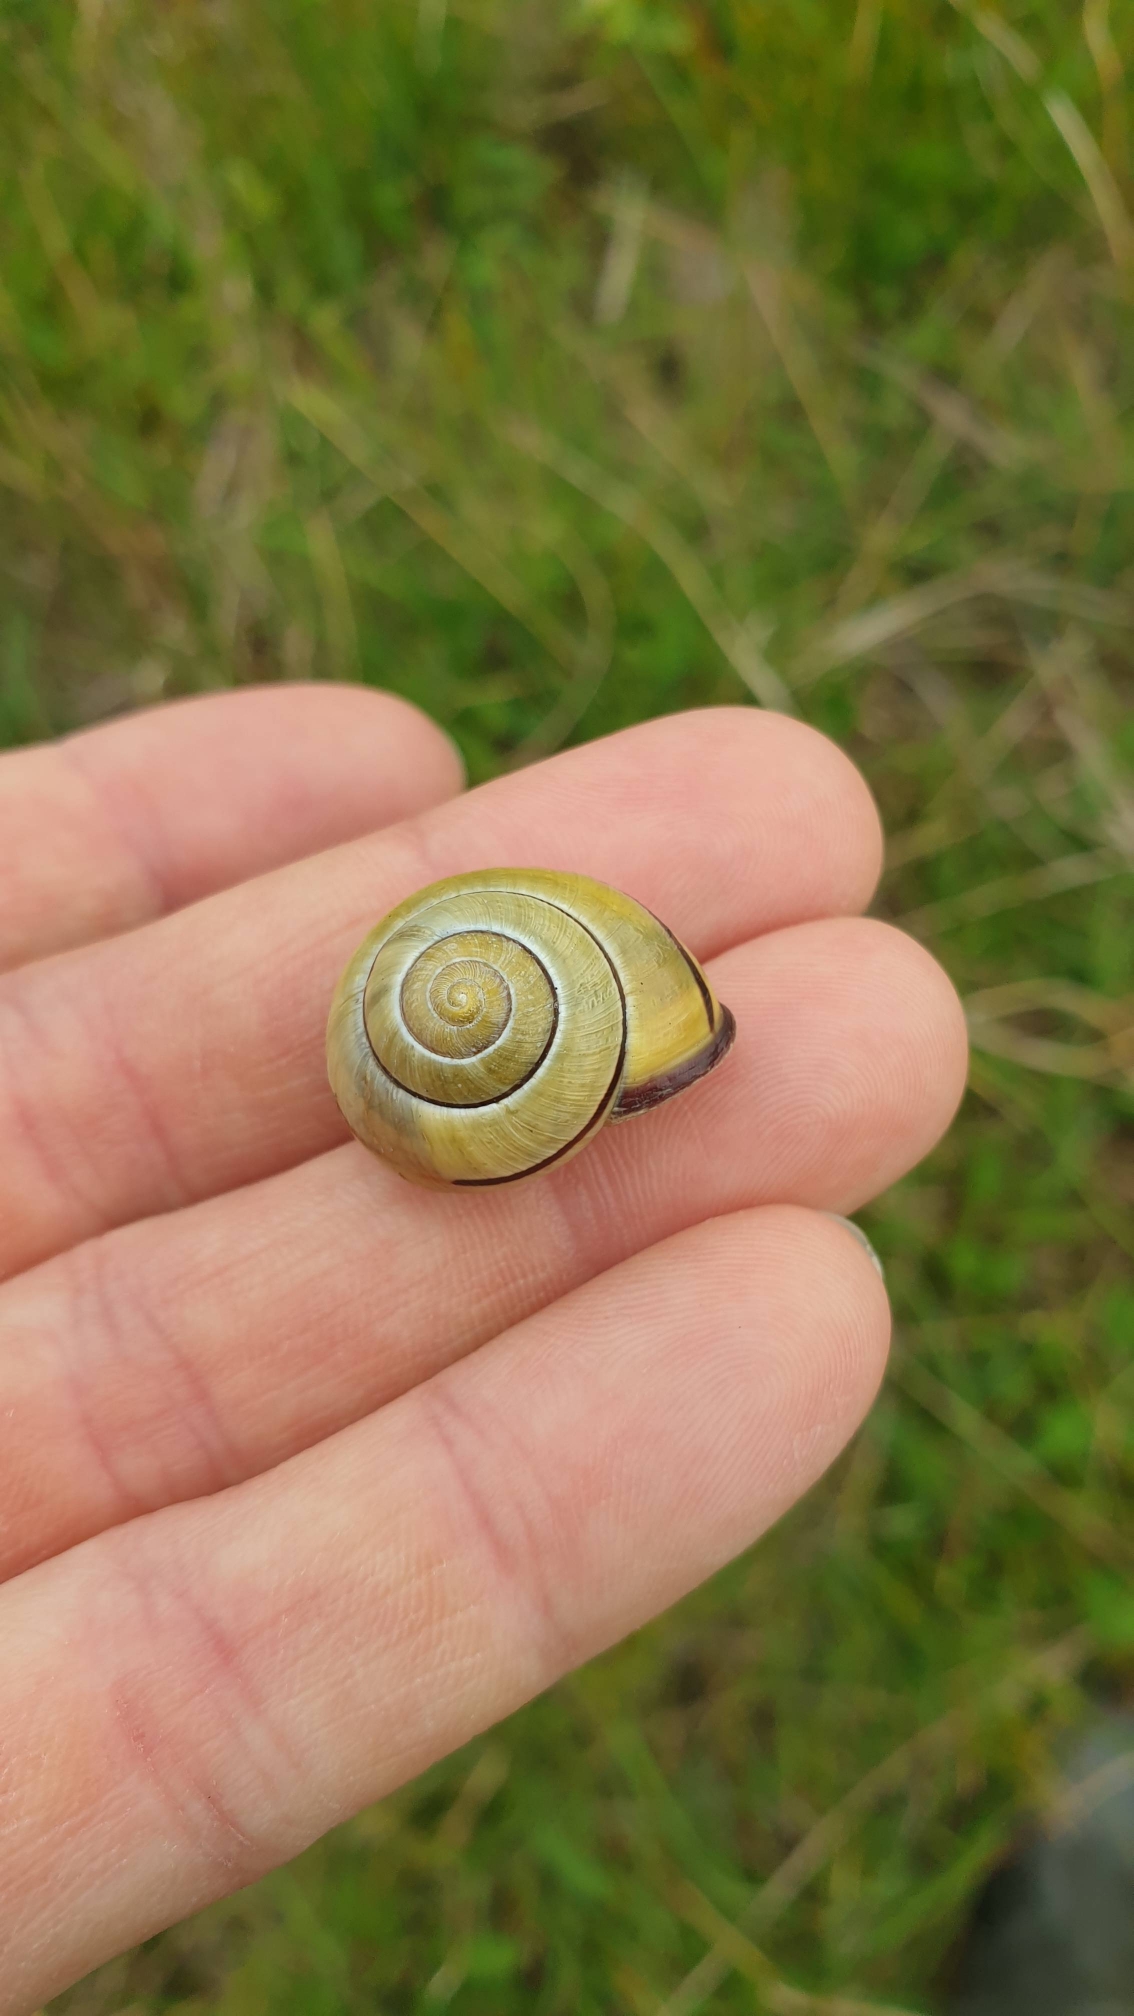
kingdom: Animalia
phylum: Mollusca
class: Gastropoda
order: Stylommatophora
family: Helicidae
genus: Cepaea
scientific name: Cepaea nemoralis
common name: Lundsnegl
